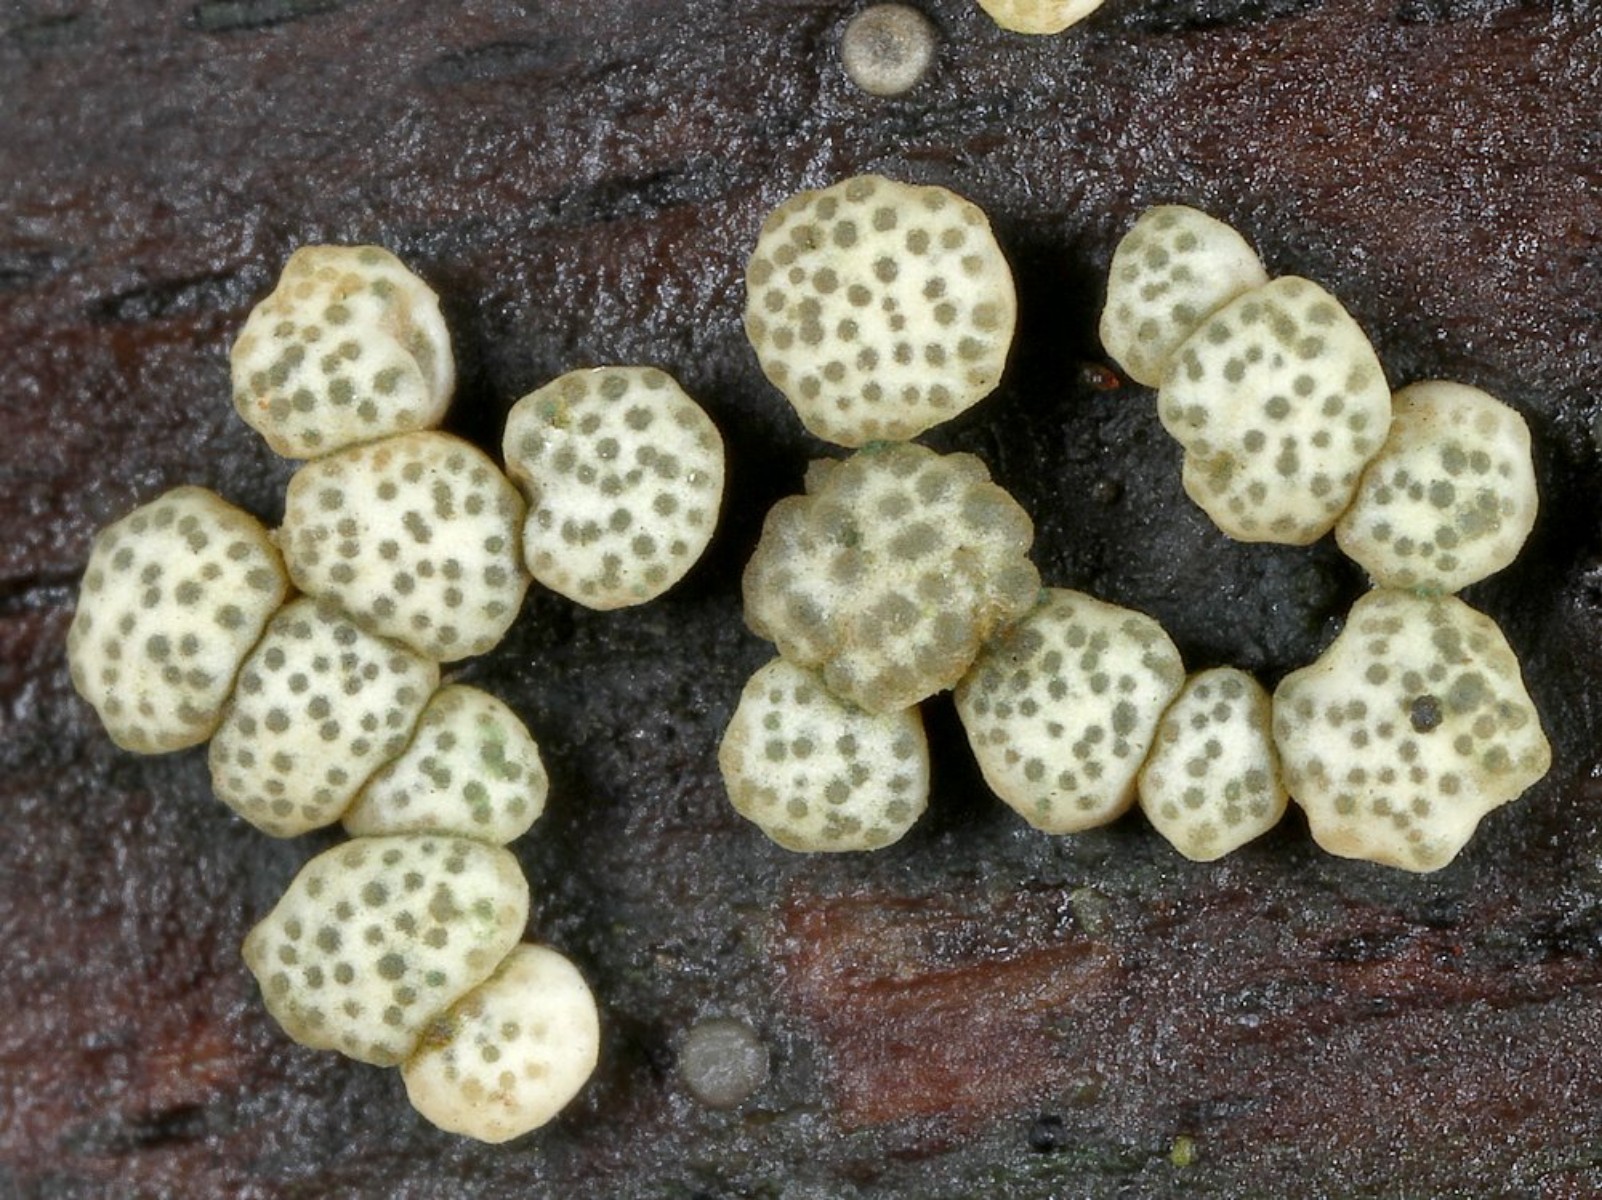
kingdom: Fungi
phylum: Ascomycota
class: Sordariomycetes
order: Hypocreales
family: Hypocreaceae
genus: Trichoderma
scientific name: Trichoderma strictipile
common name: grønprikket kødkerne
